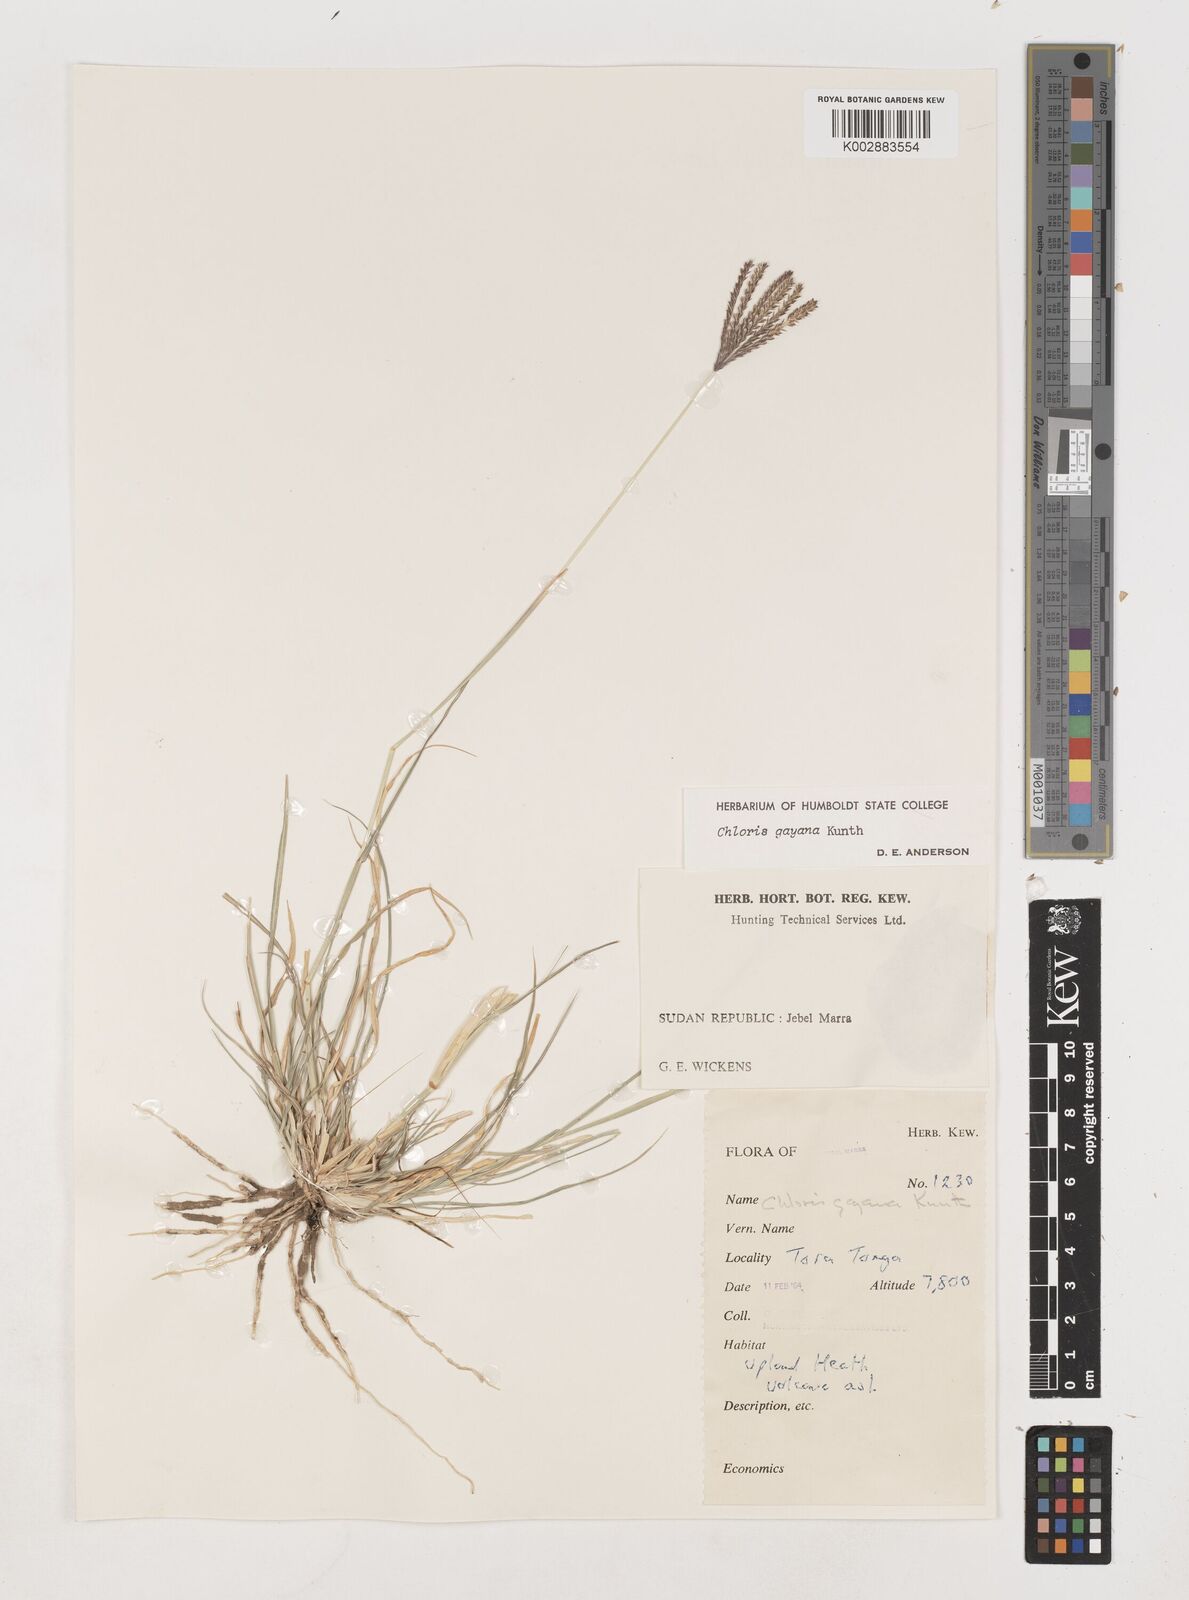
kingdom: Plantae
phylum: Tracheophyta
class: Liliopsida
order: Poales
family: Poaceae
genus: Chloris
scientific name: Chloris gayana
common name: Rhodes grass
